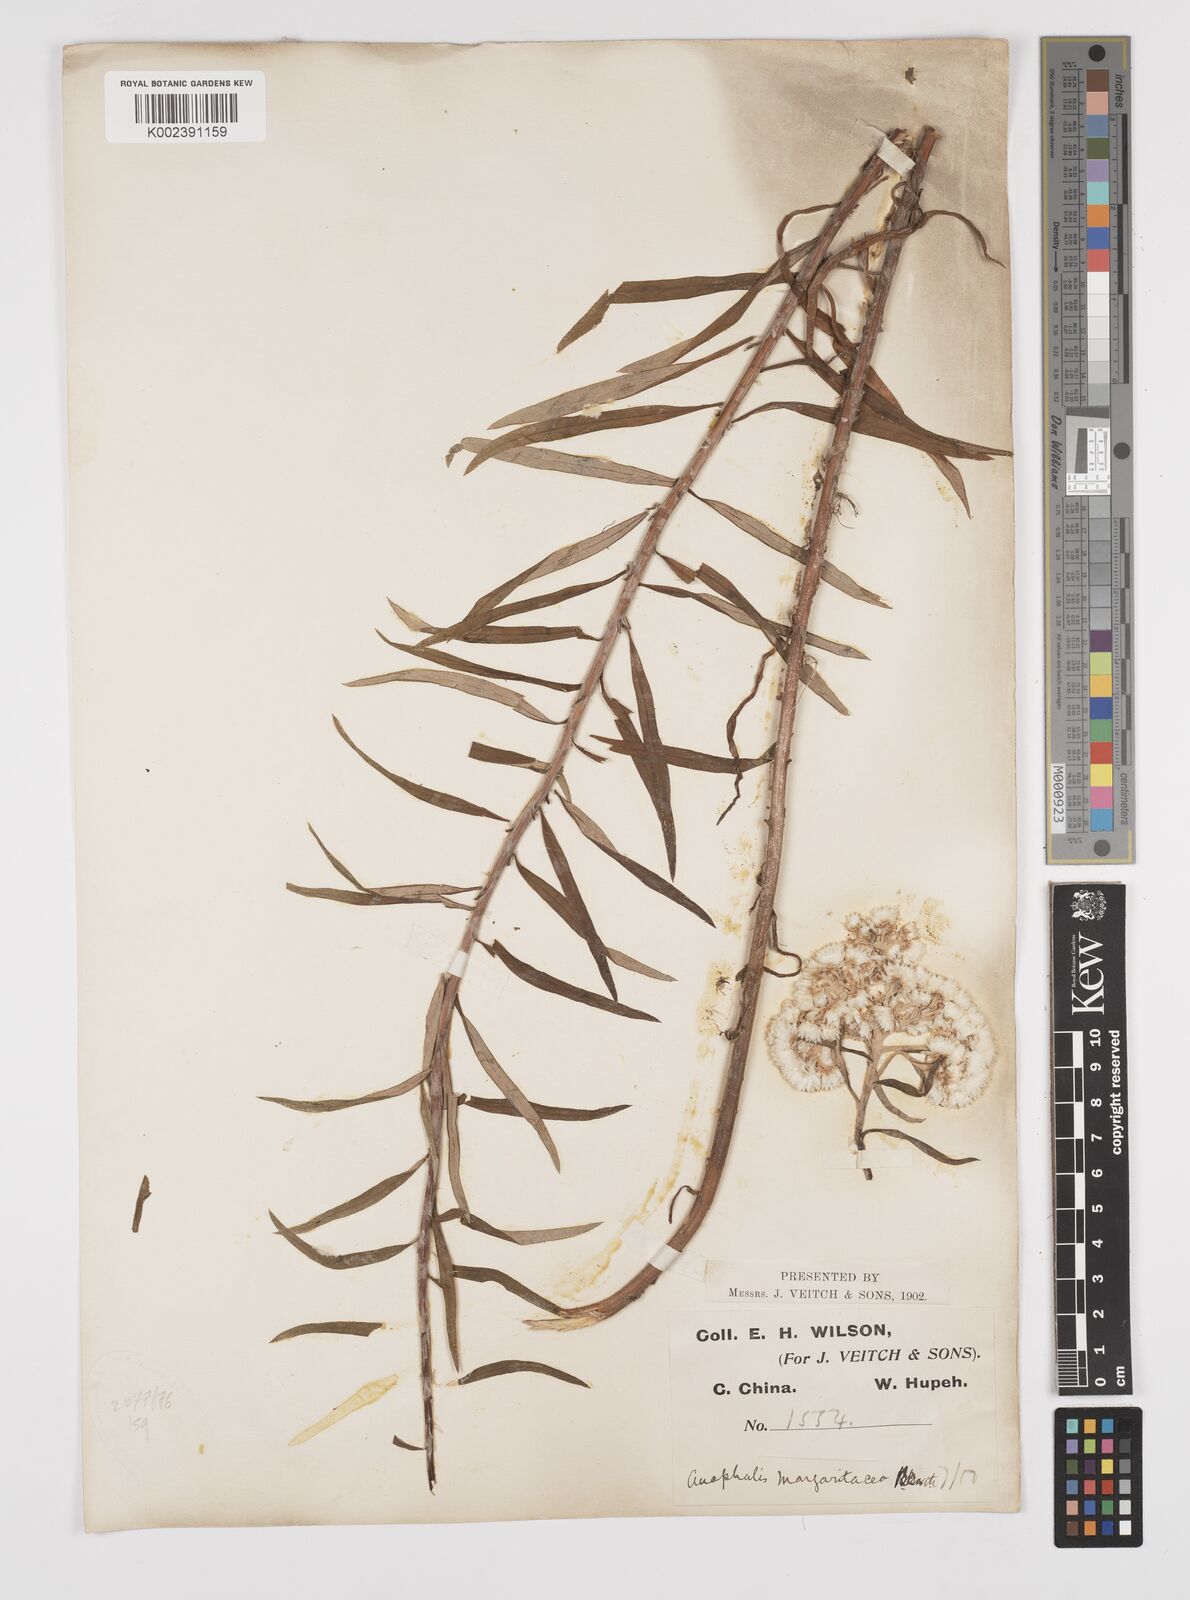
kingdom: Plantae
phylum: Tracheophyta
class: Magnoliopsida
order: Asterales
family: Asteraceae
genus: Anaphalis
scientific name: Anaphalis margaritacea
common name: Pearly everlasting
